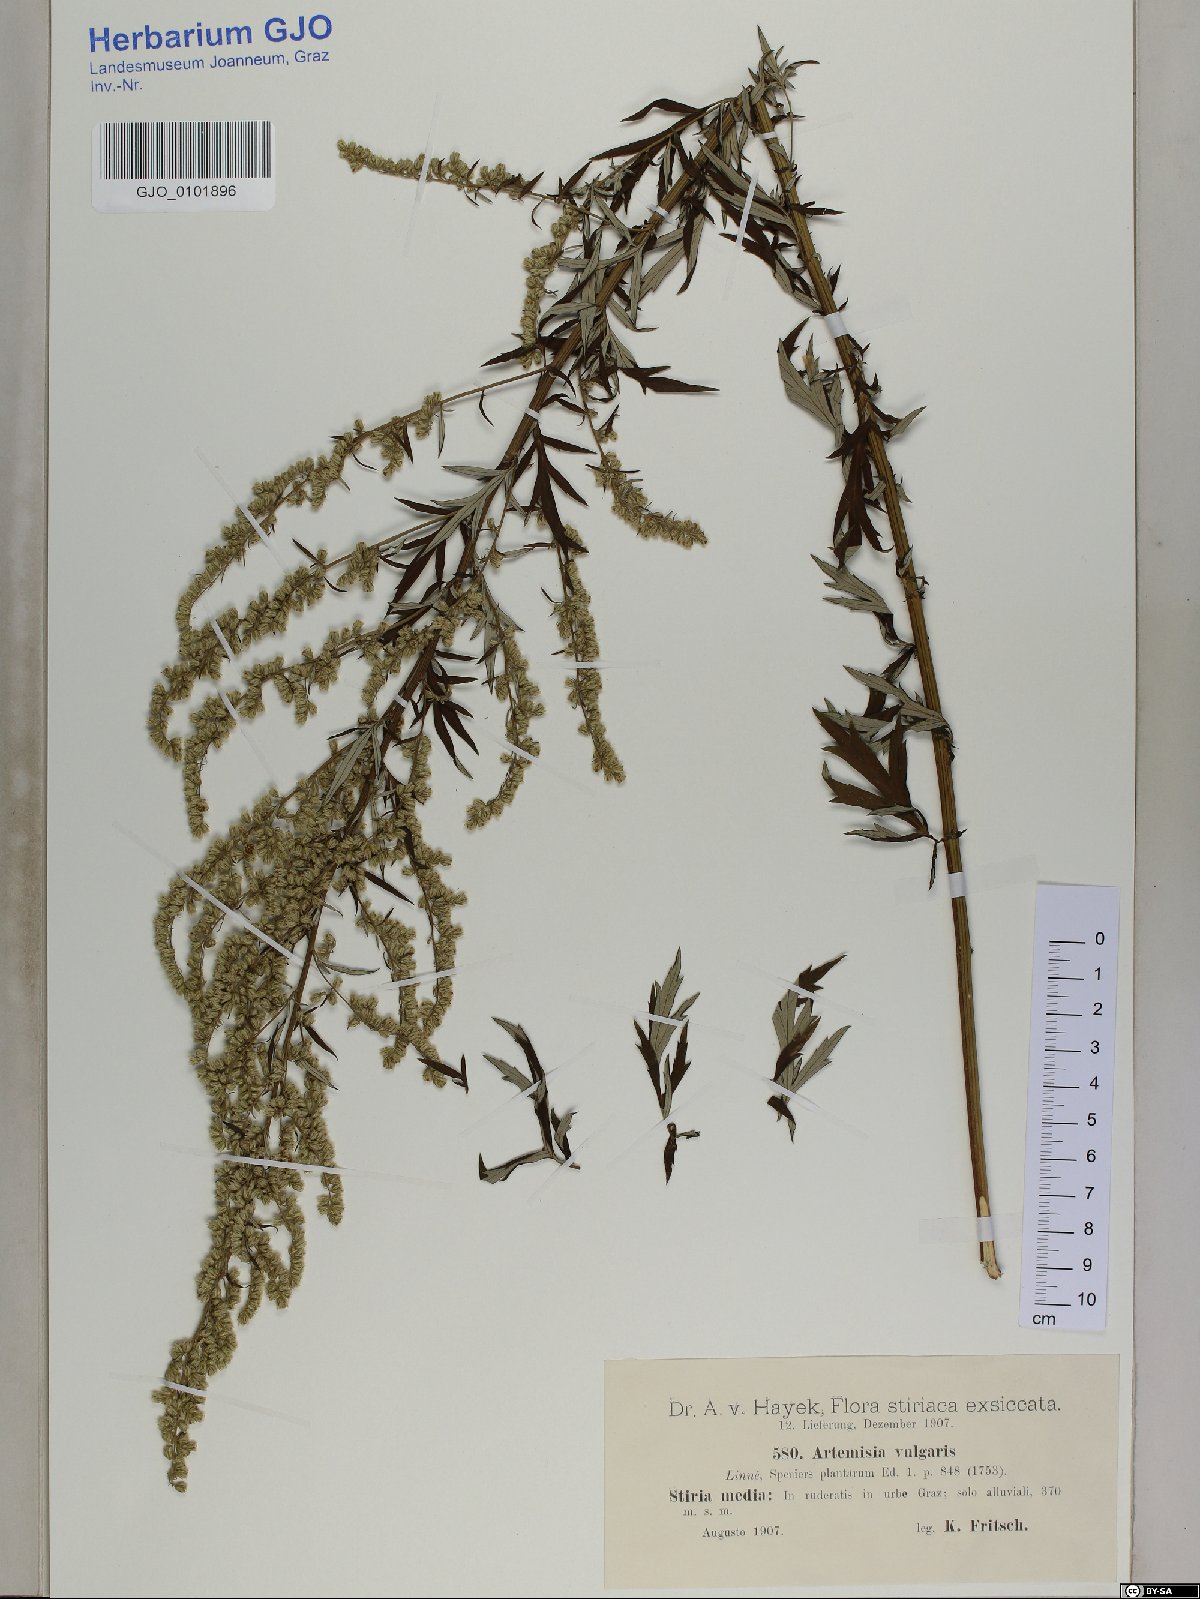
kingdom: Plantae
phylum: Tracheophyta
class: Magnoliopsida
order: Asterales
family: Asteraceae
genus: Artemisia
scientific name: Artemisia vulgaris
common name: Mugwort
